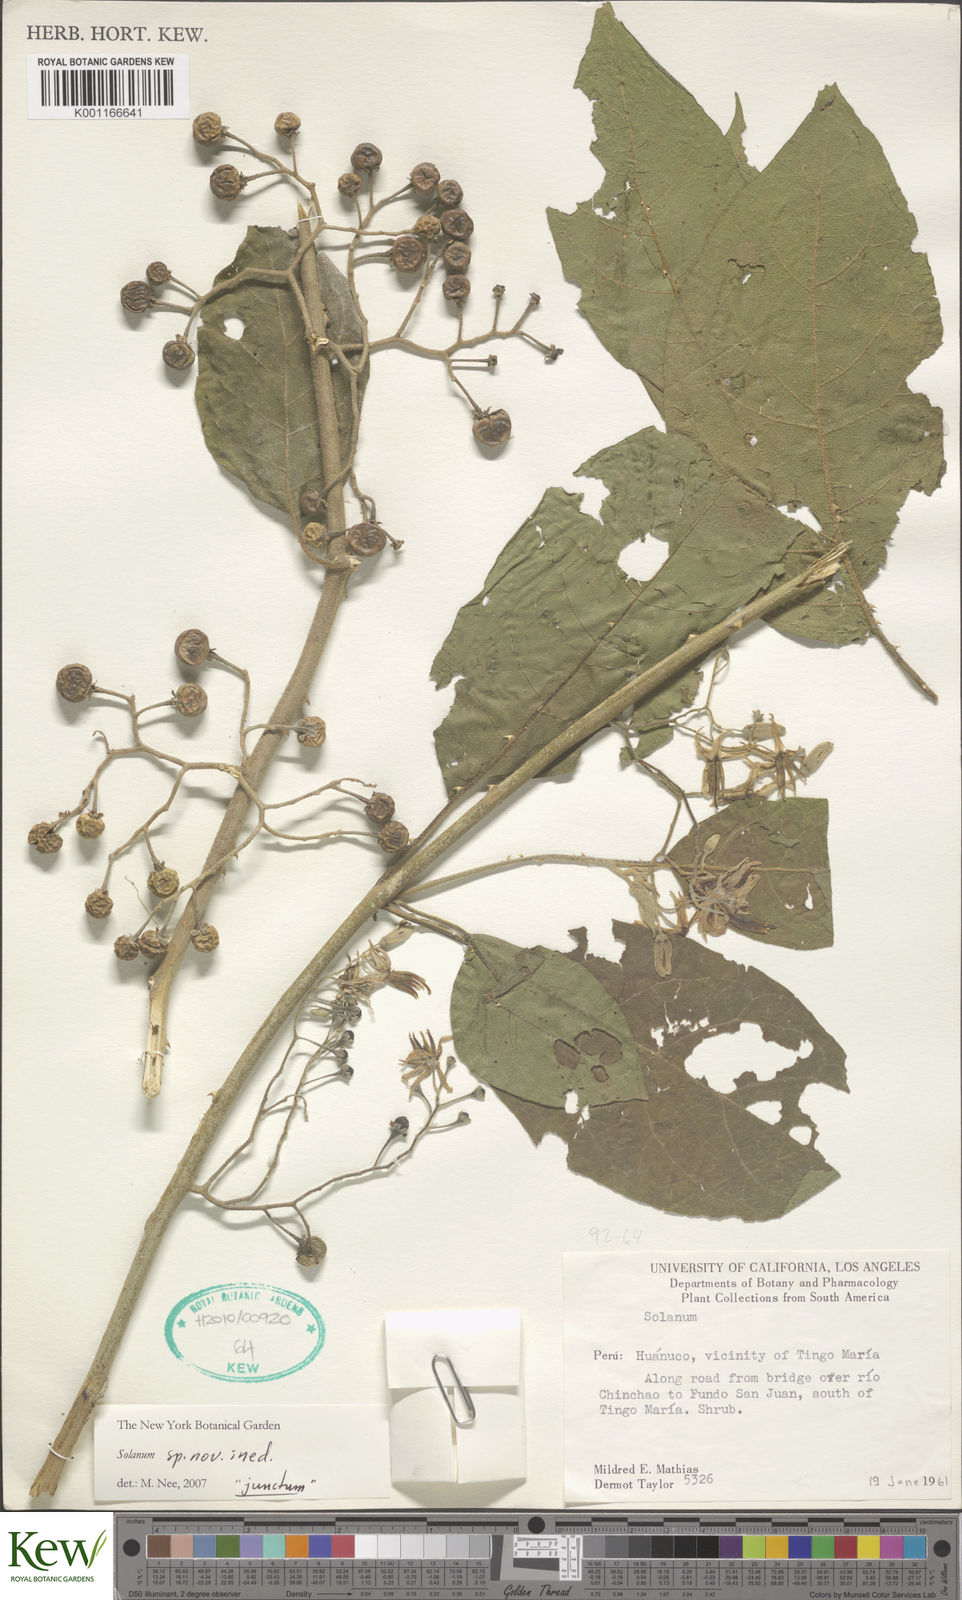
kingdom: Plantae
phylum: Tracheophyta
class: Magnoliopsida
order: Solanales
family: Solanaceae
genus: Solanum
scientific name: Solanum
